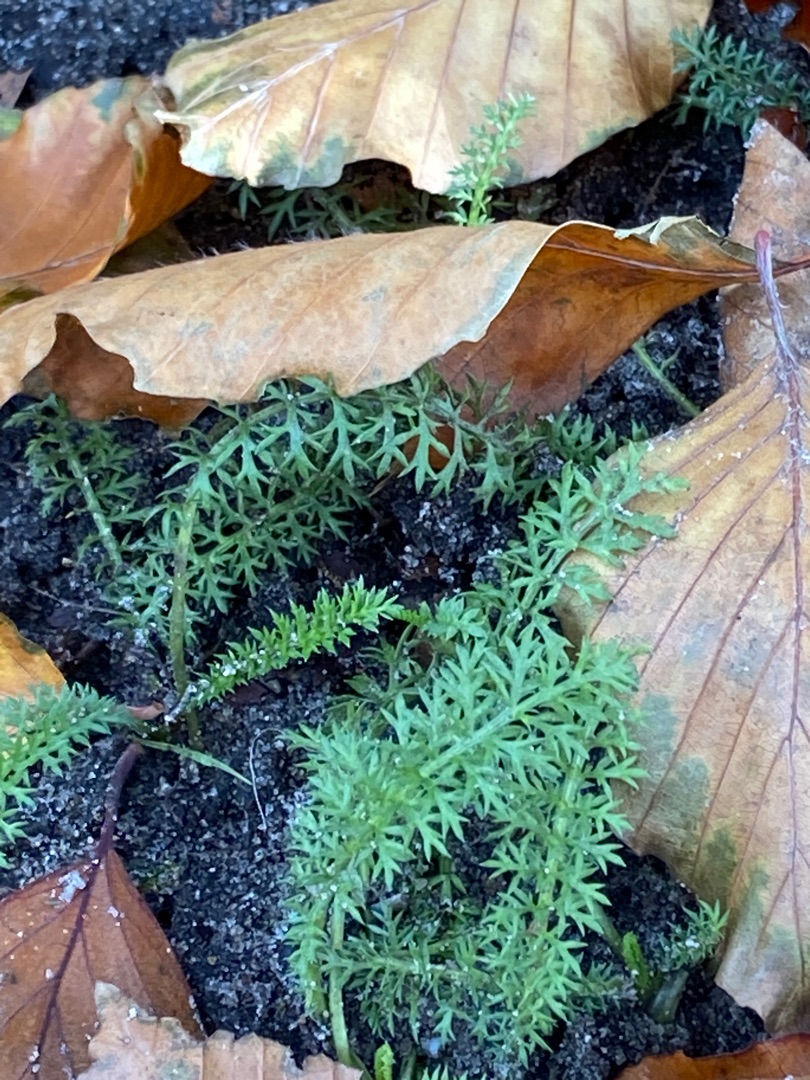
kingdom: Plantae
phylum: Tracheophyta
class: Magnoliopsida
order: Asterales
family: Asteraceae
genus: Achillea
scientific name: Achillea millefolium
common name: Almindelig røllike
